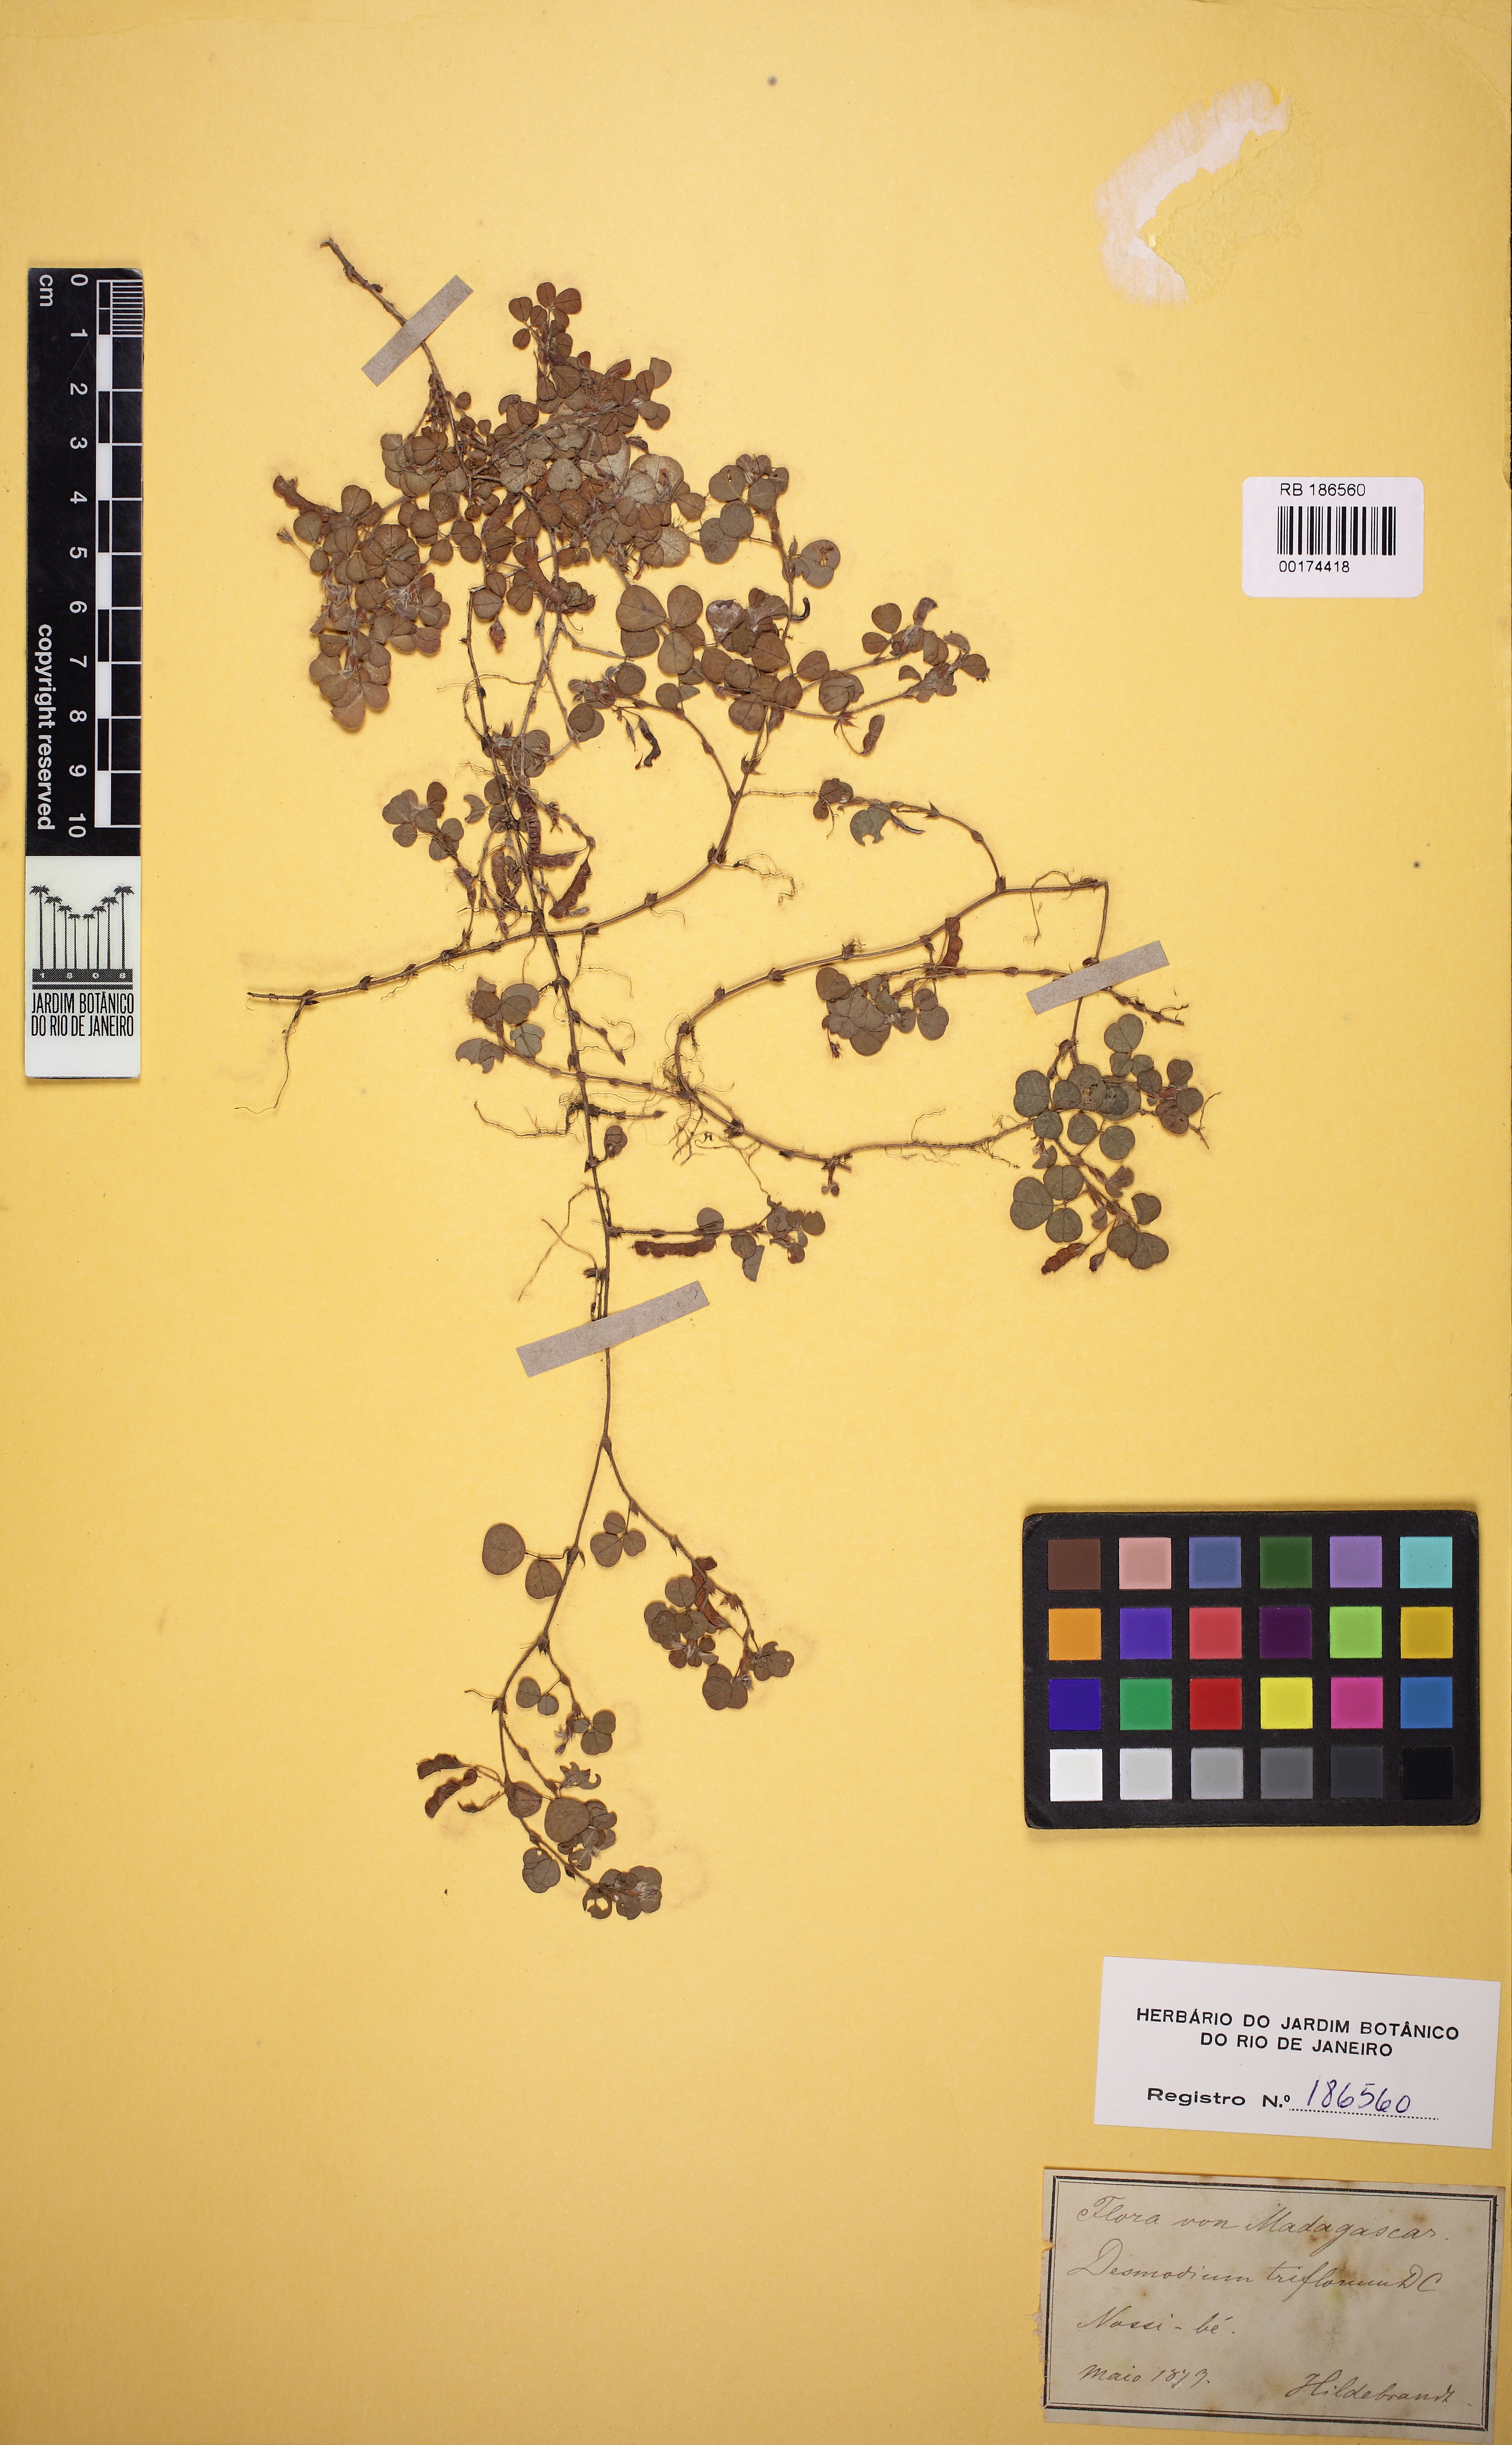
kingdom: Plantae
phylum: Tracheophyta
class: Magnoliopsida
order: Fabales
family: Fabaceae
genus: Grona
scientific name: Grona triflora
